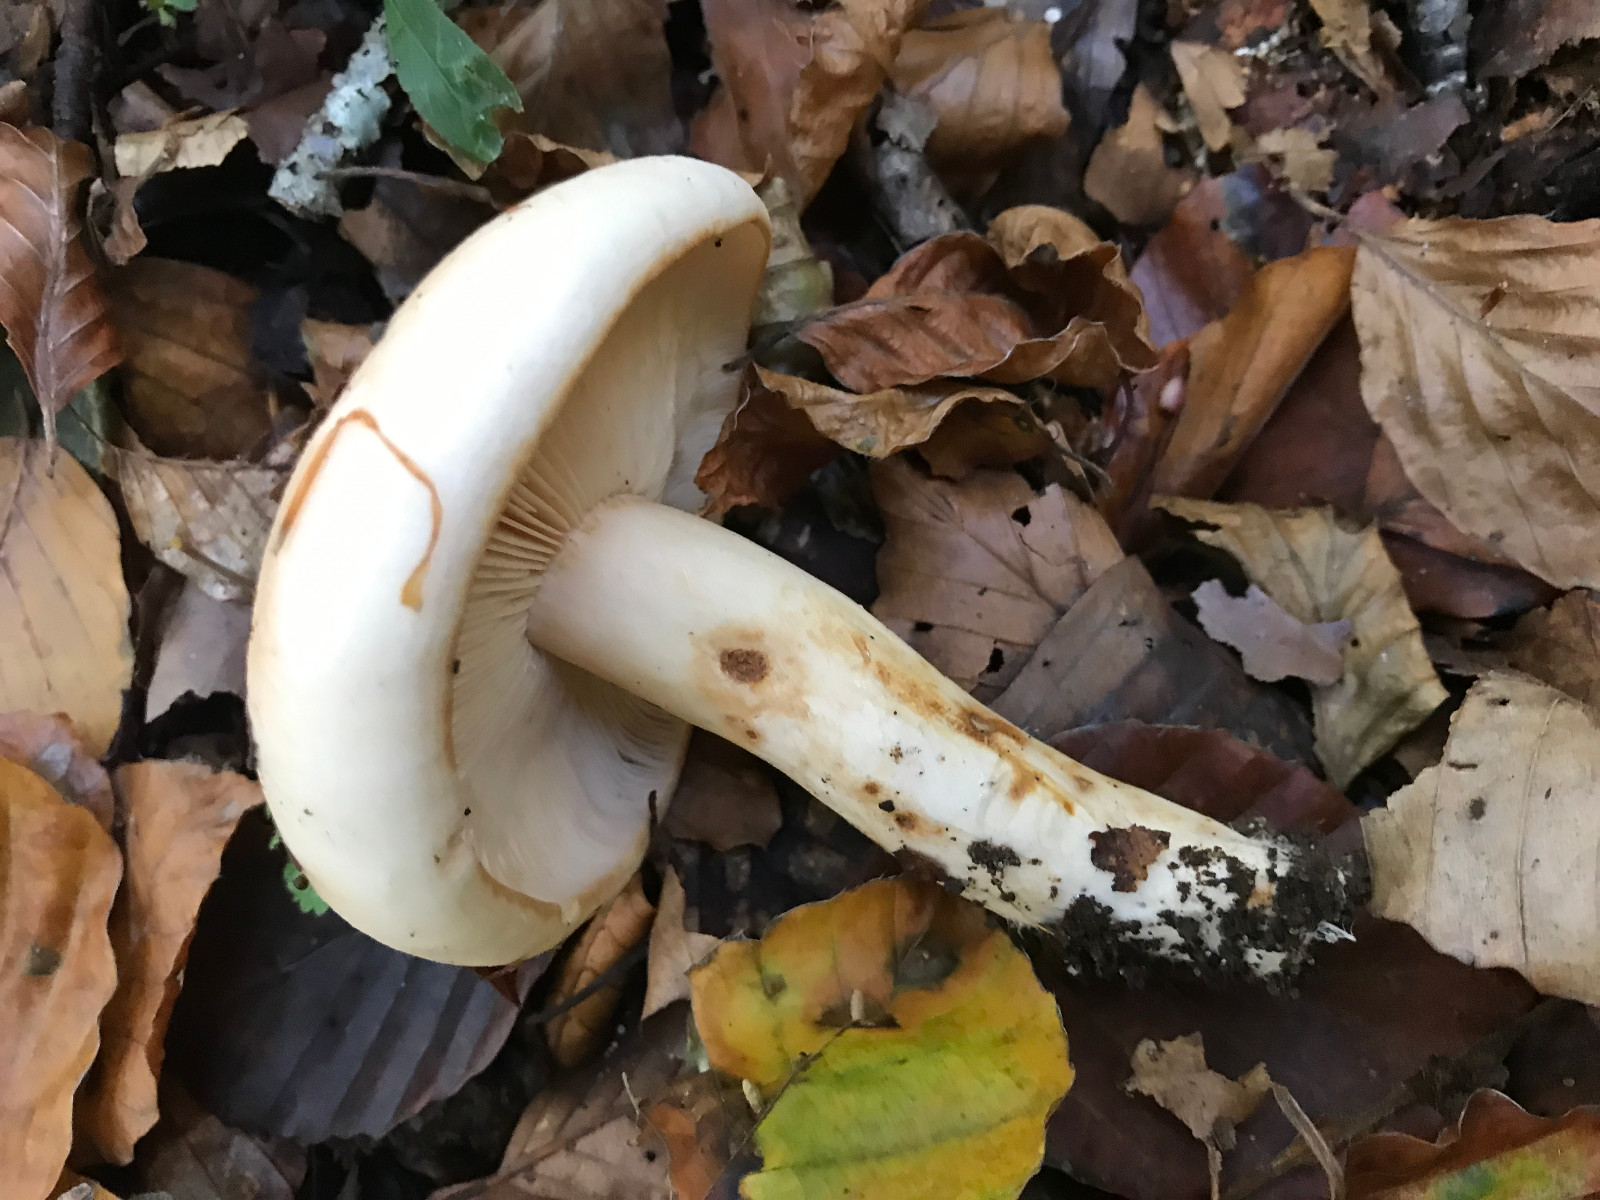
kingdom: Fungi
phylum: Basidiomycota
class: Agaricomycetes
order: Agaricales
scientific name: Agaricales
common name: champignonordenen
